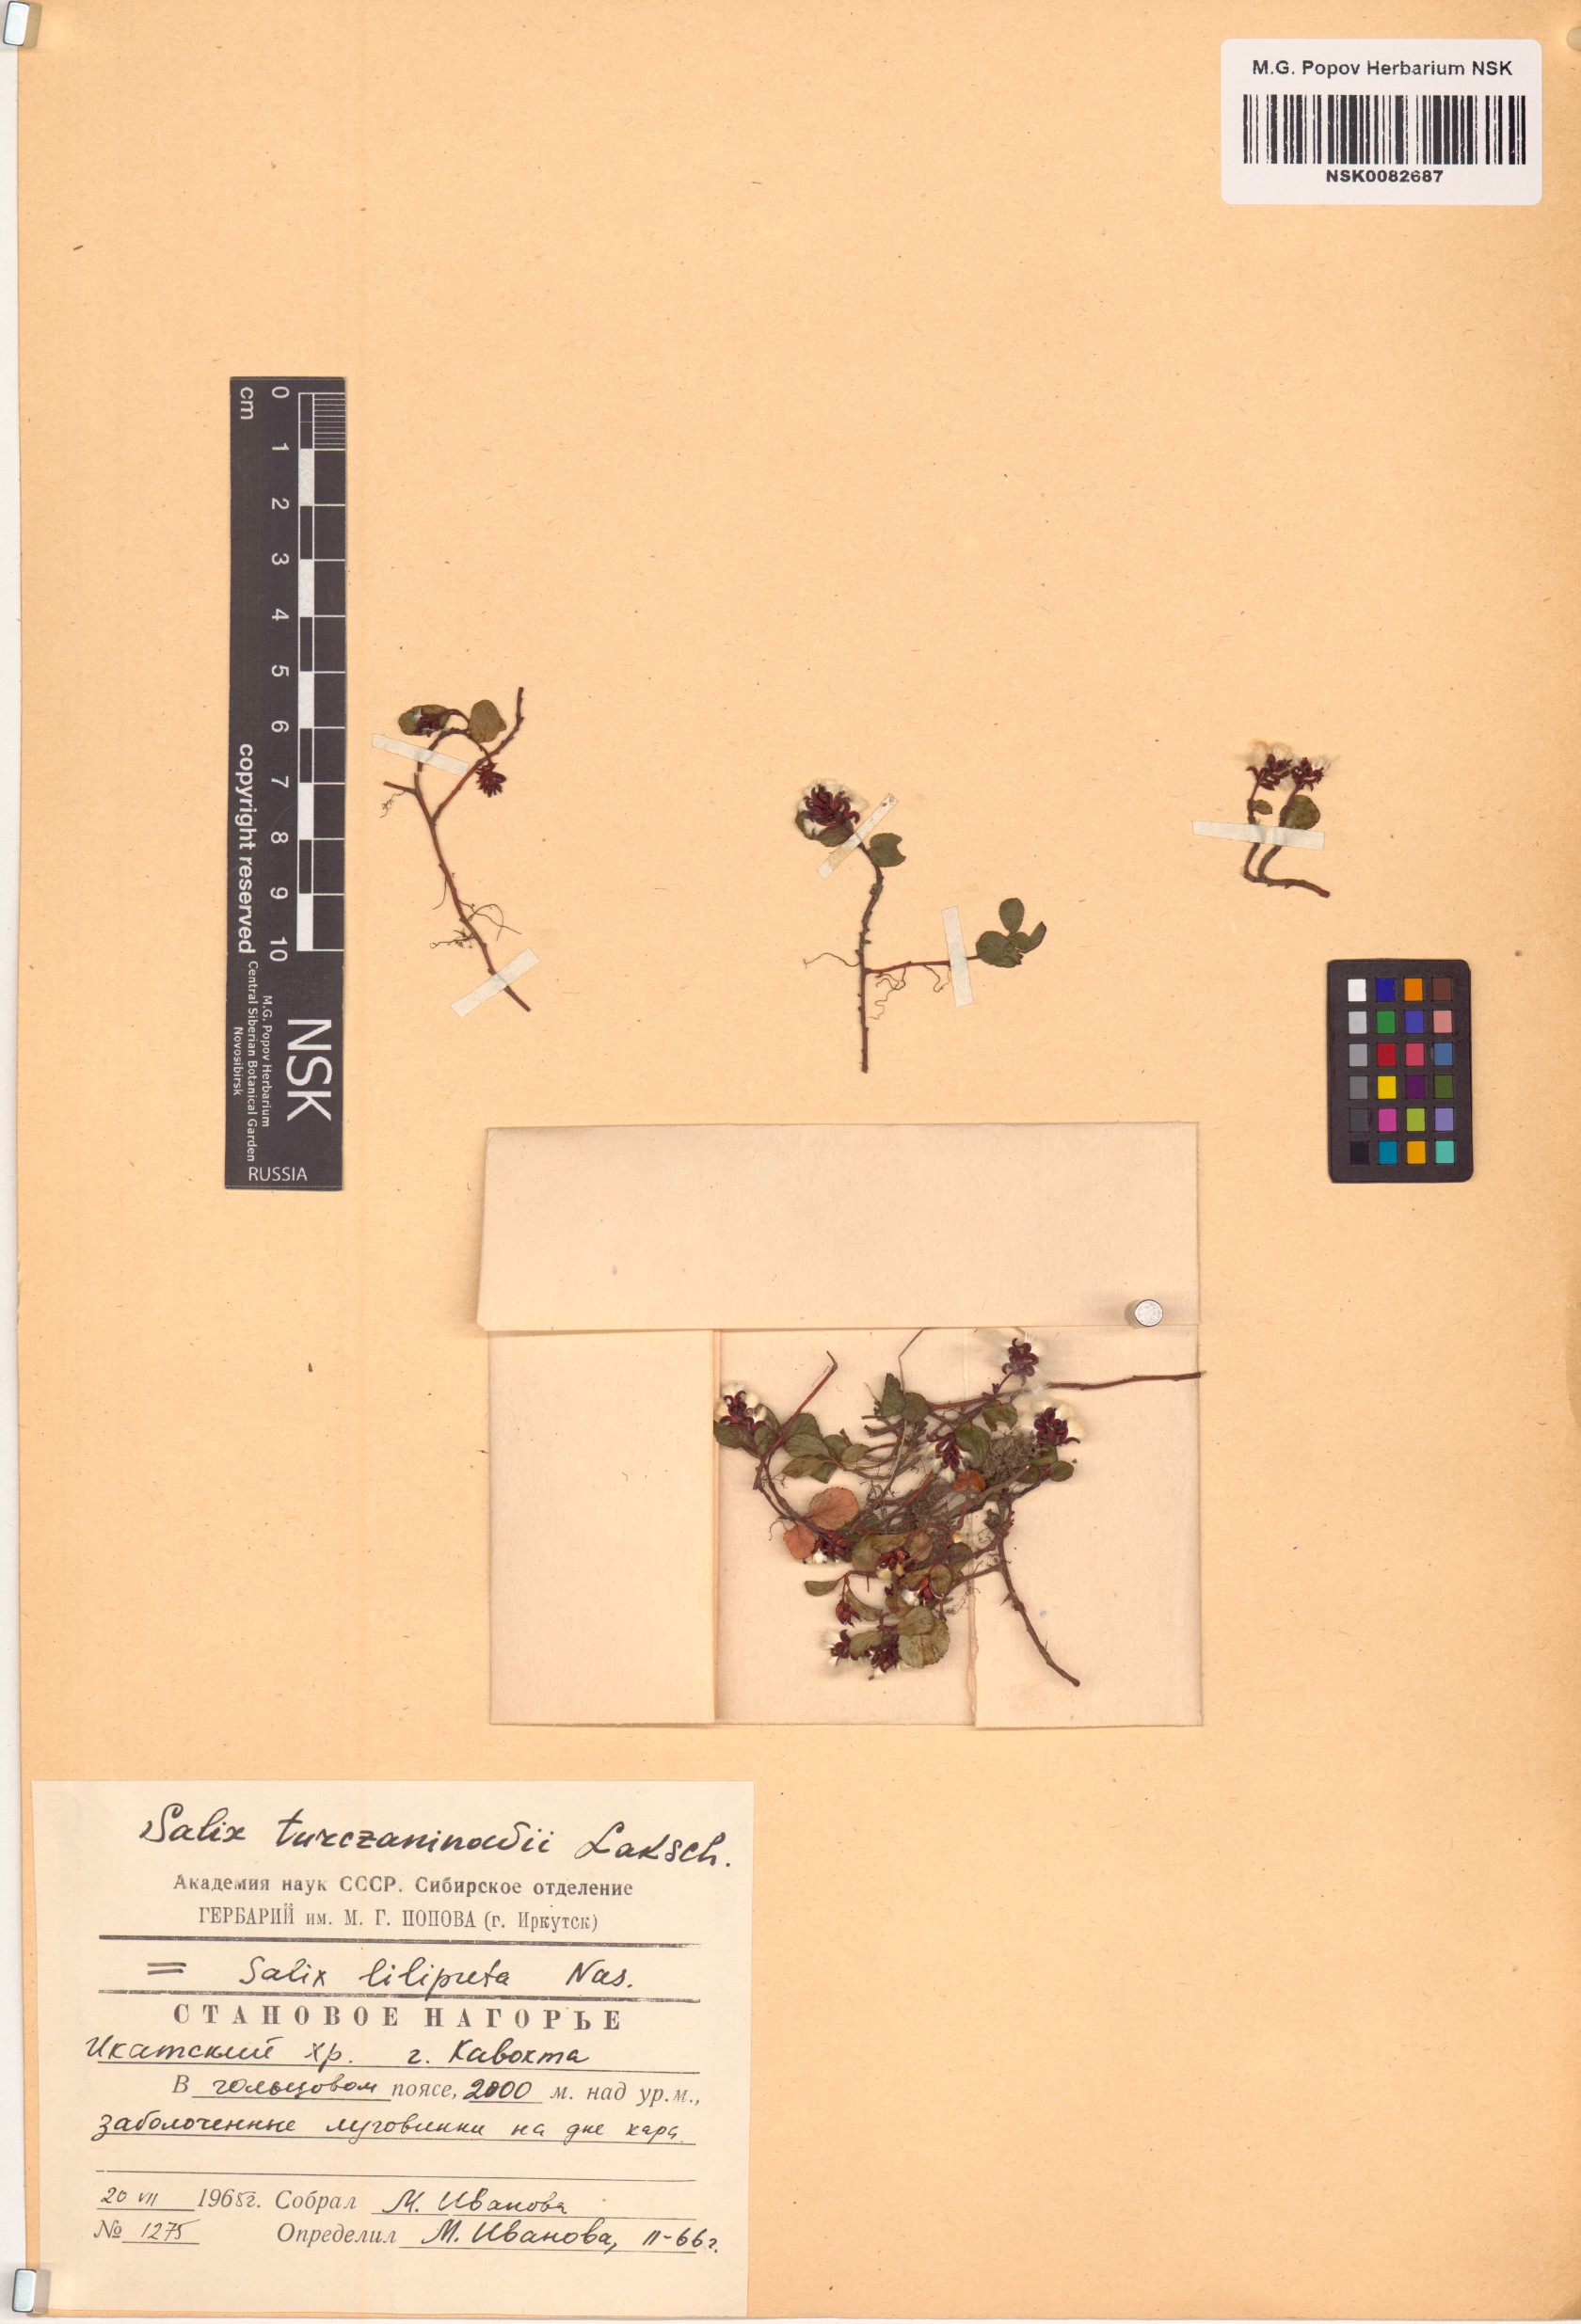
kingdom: Plantae
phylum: Tracheophyta
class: Magnoliopsida
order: Malpighiales
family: Salicaceae
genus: Salix
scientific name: Salix turczaninowii
